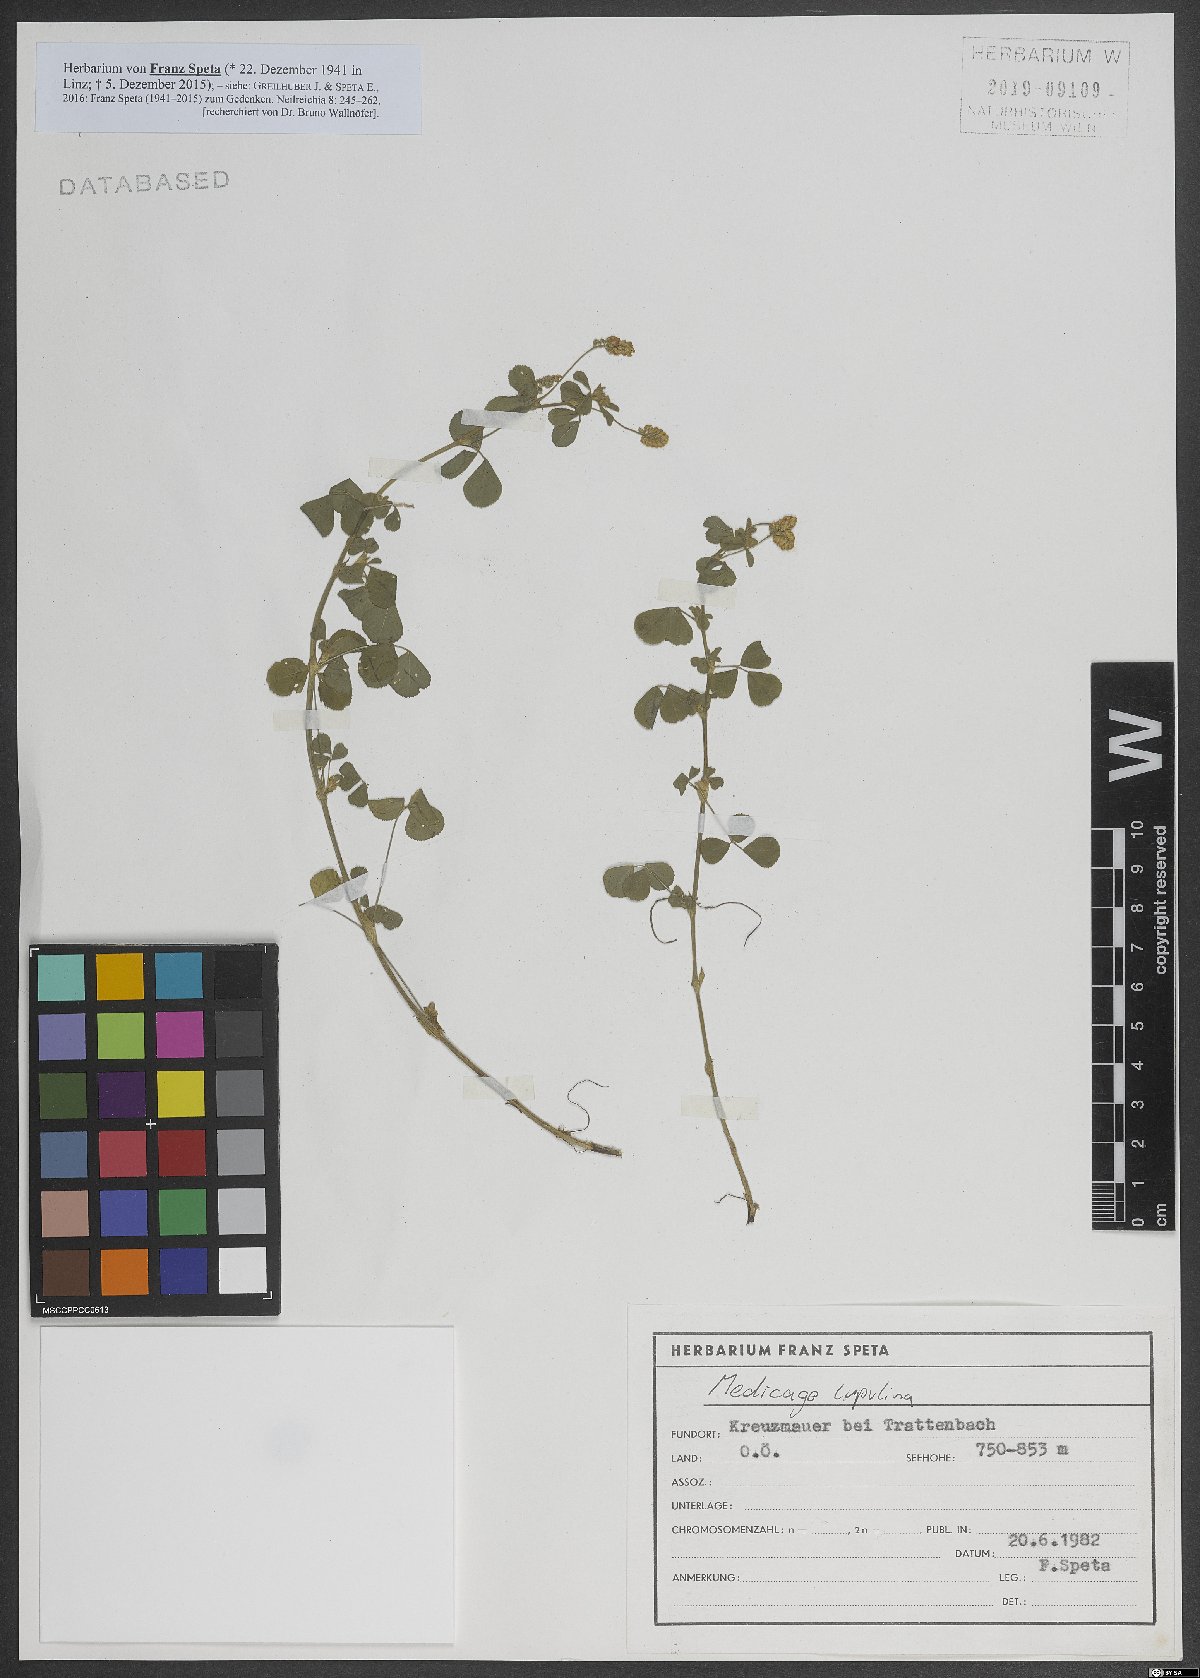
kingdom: Plantae
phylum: Tracheophyta
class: Magnoliopsida
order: Fabales
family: Fabaceae
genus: Medicago
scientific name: Medicago lupulina
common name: Black medick
